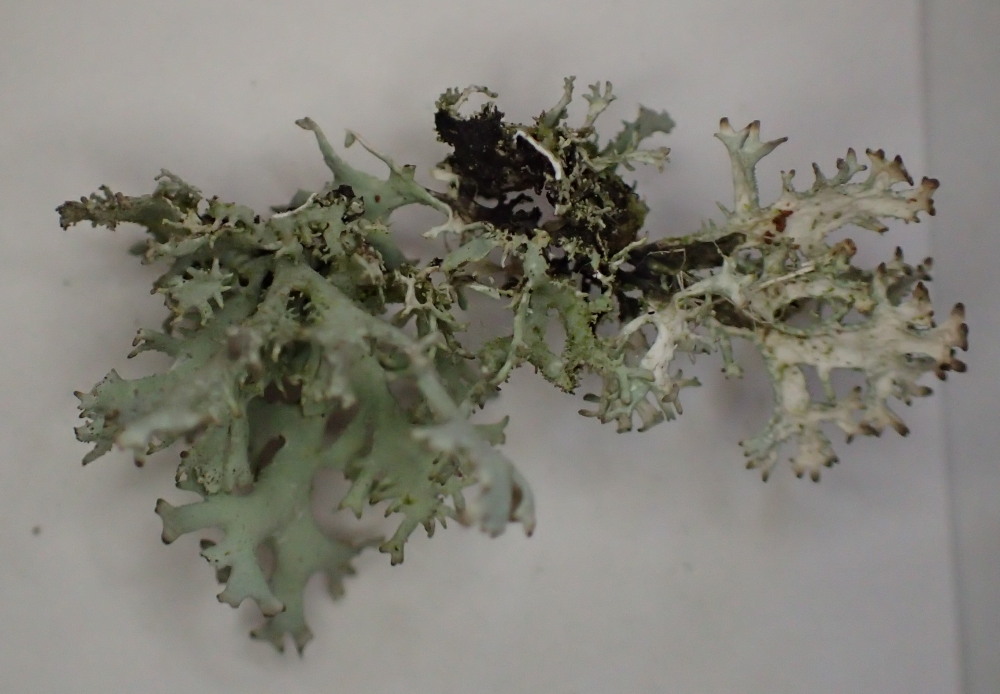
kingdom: Fungi
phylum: Ascomycota
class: Lecanoromycetes
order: Lecanorales
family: Parmeliaceae
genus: Evernia
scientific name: Evernia prunastri
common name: almindelig slåenlav
